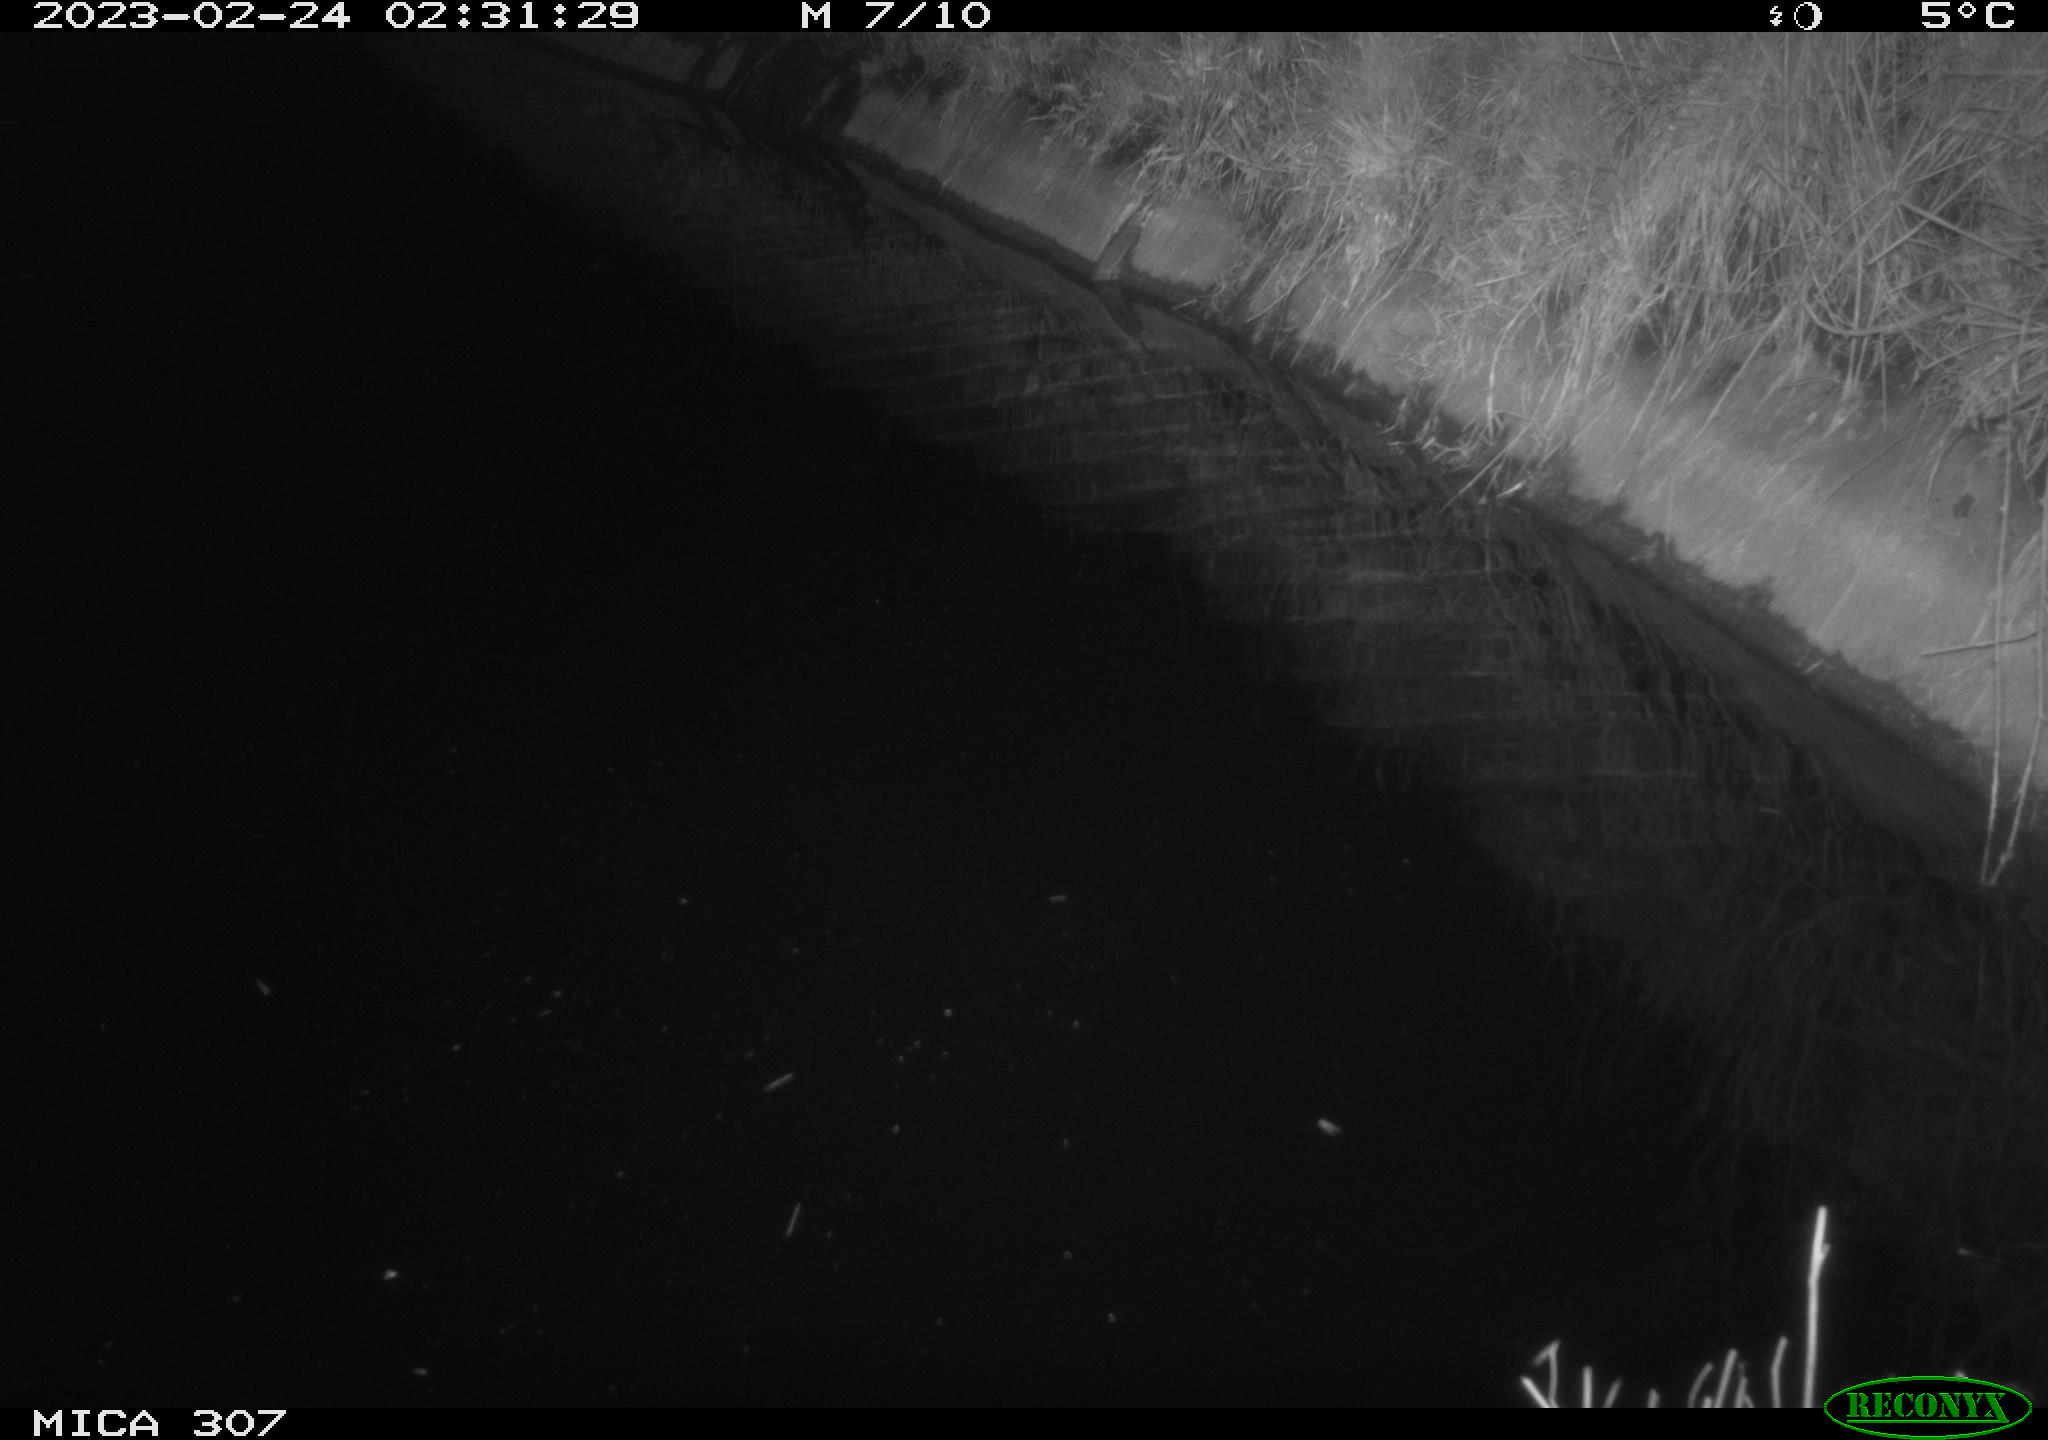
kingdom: Animalia
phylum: Chordata
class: Mammalia
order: Rodentia
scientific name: Rodentia
